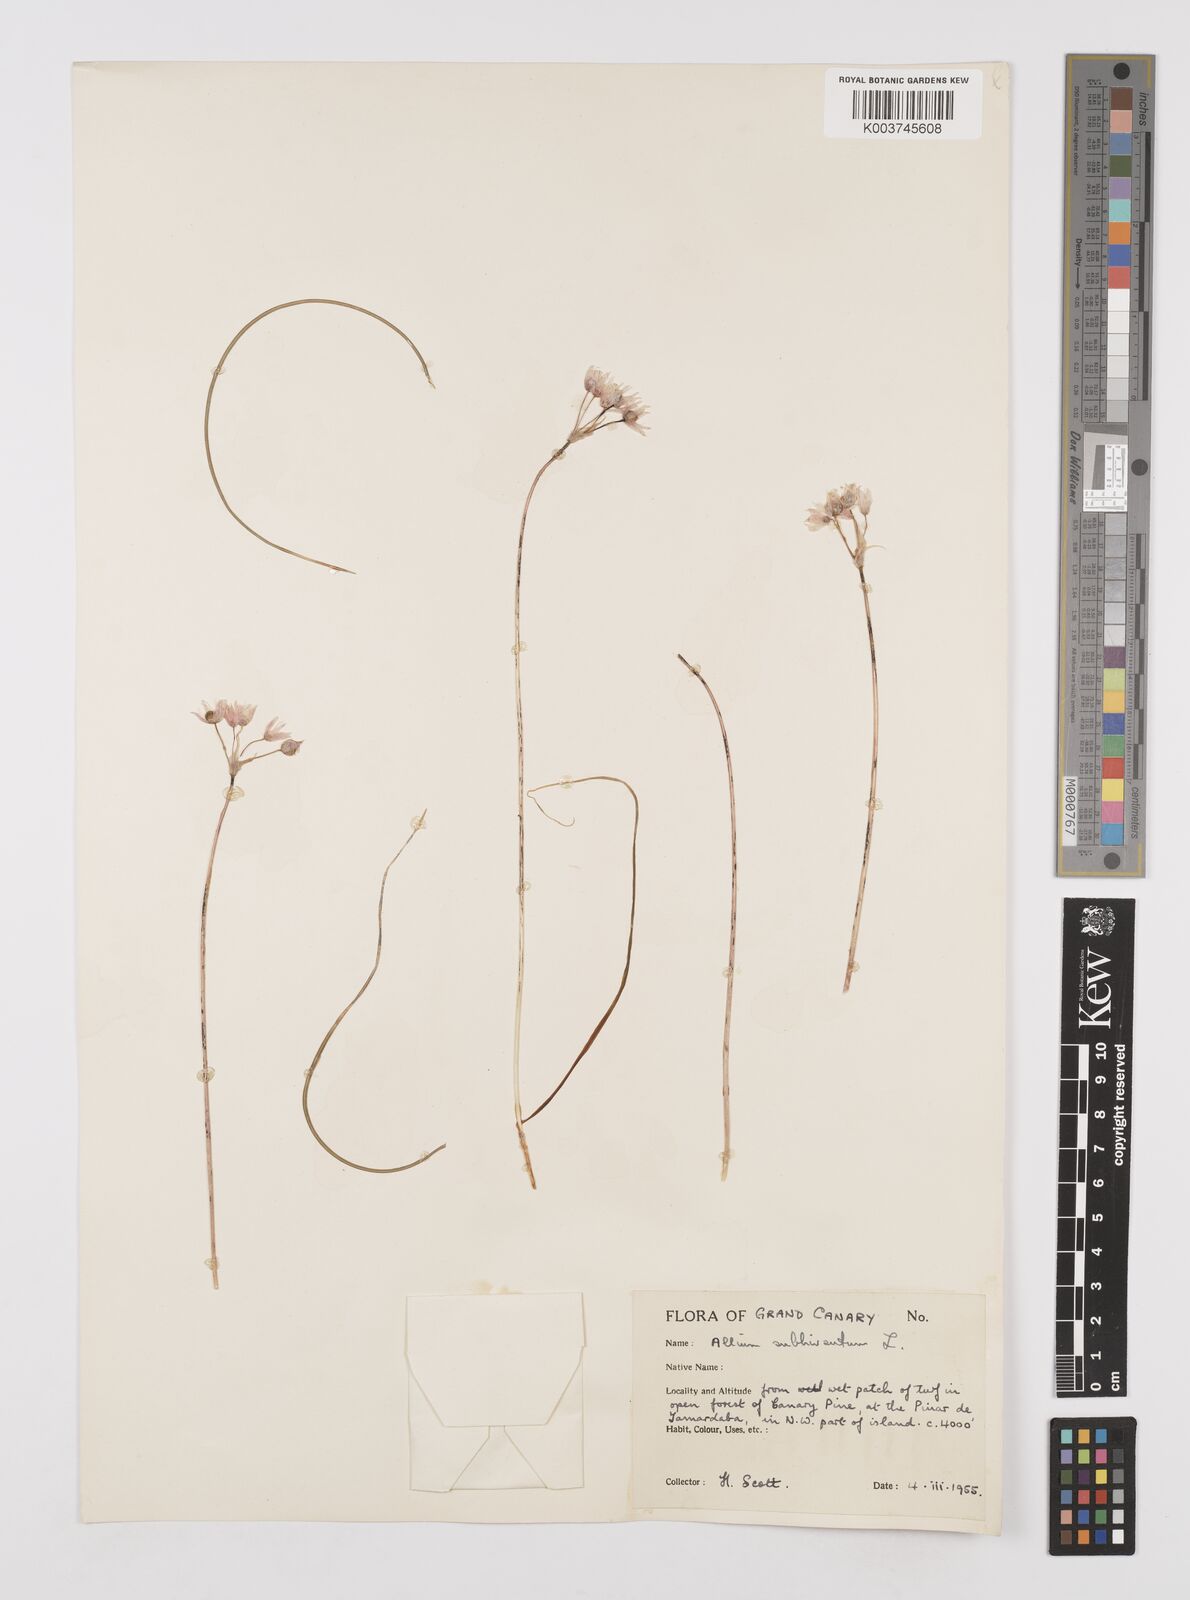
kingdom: Plantae
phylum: Tracheophyta
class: Liliopsida
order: Asparagales
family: Amaryllidaceae
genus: Allium
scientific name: Allium subvillosum
